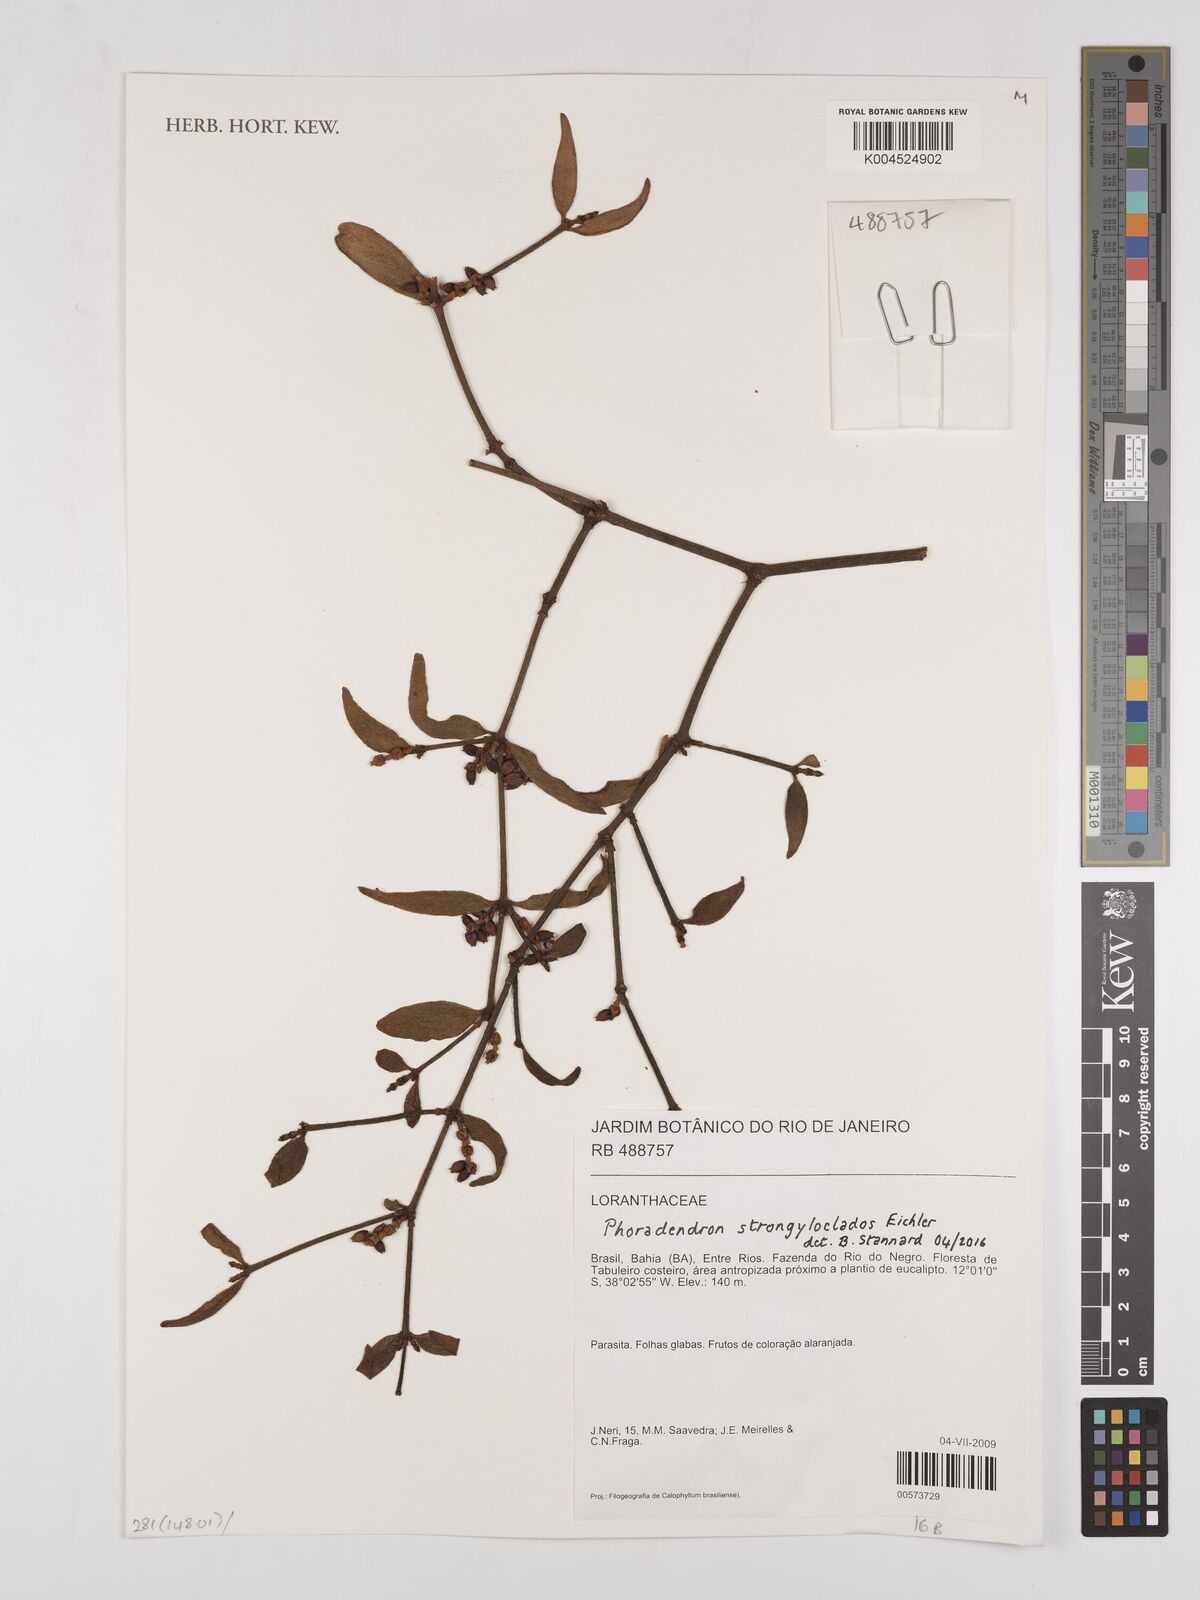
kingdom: Plantae
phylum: Tracheophyta
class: Magnoliopsida
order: Santalales
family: Viscaceae
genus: Phoradendron
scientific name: Phoradendron strongyloclados
